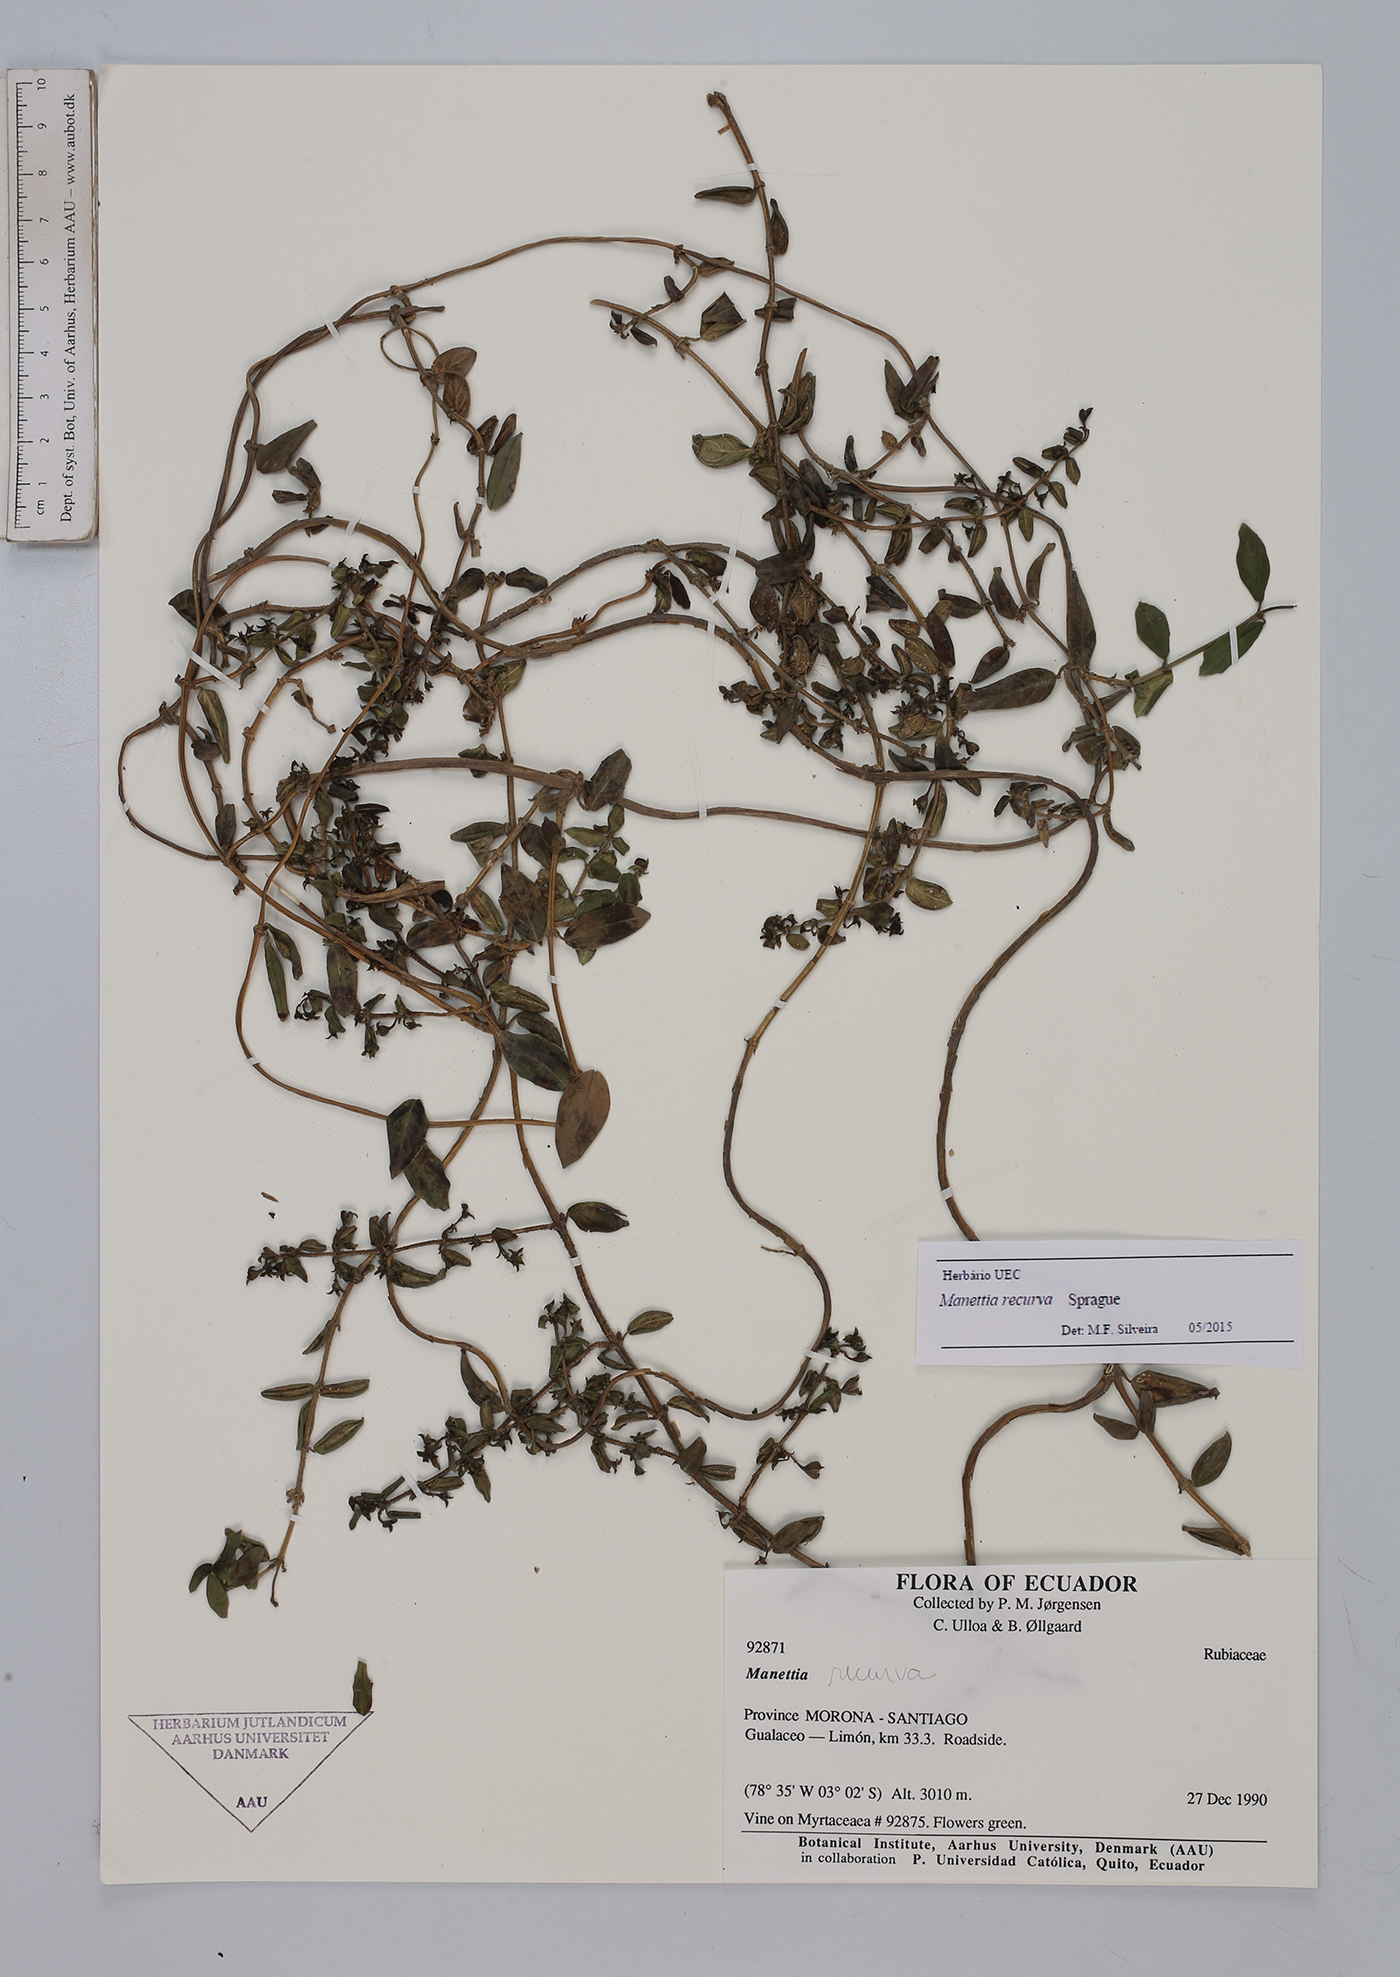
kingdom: Plantae
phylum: Tracheophyta
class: Magnoliopsida
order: Gentianales
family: Rubiaceae
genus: Manettia
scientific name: Manettia recurva
